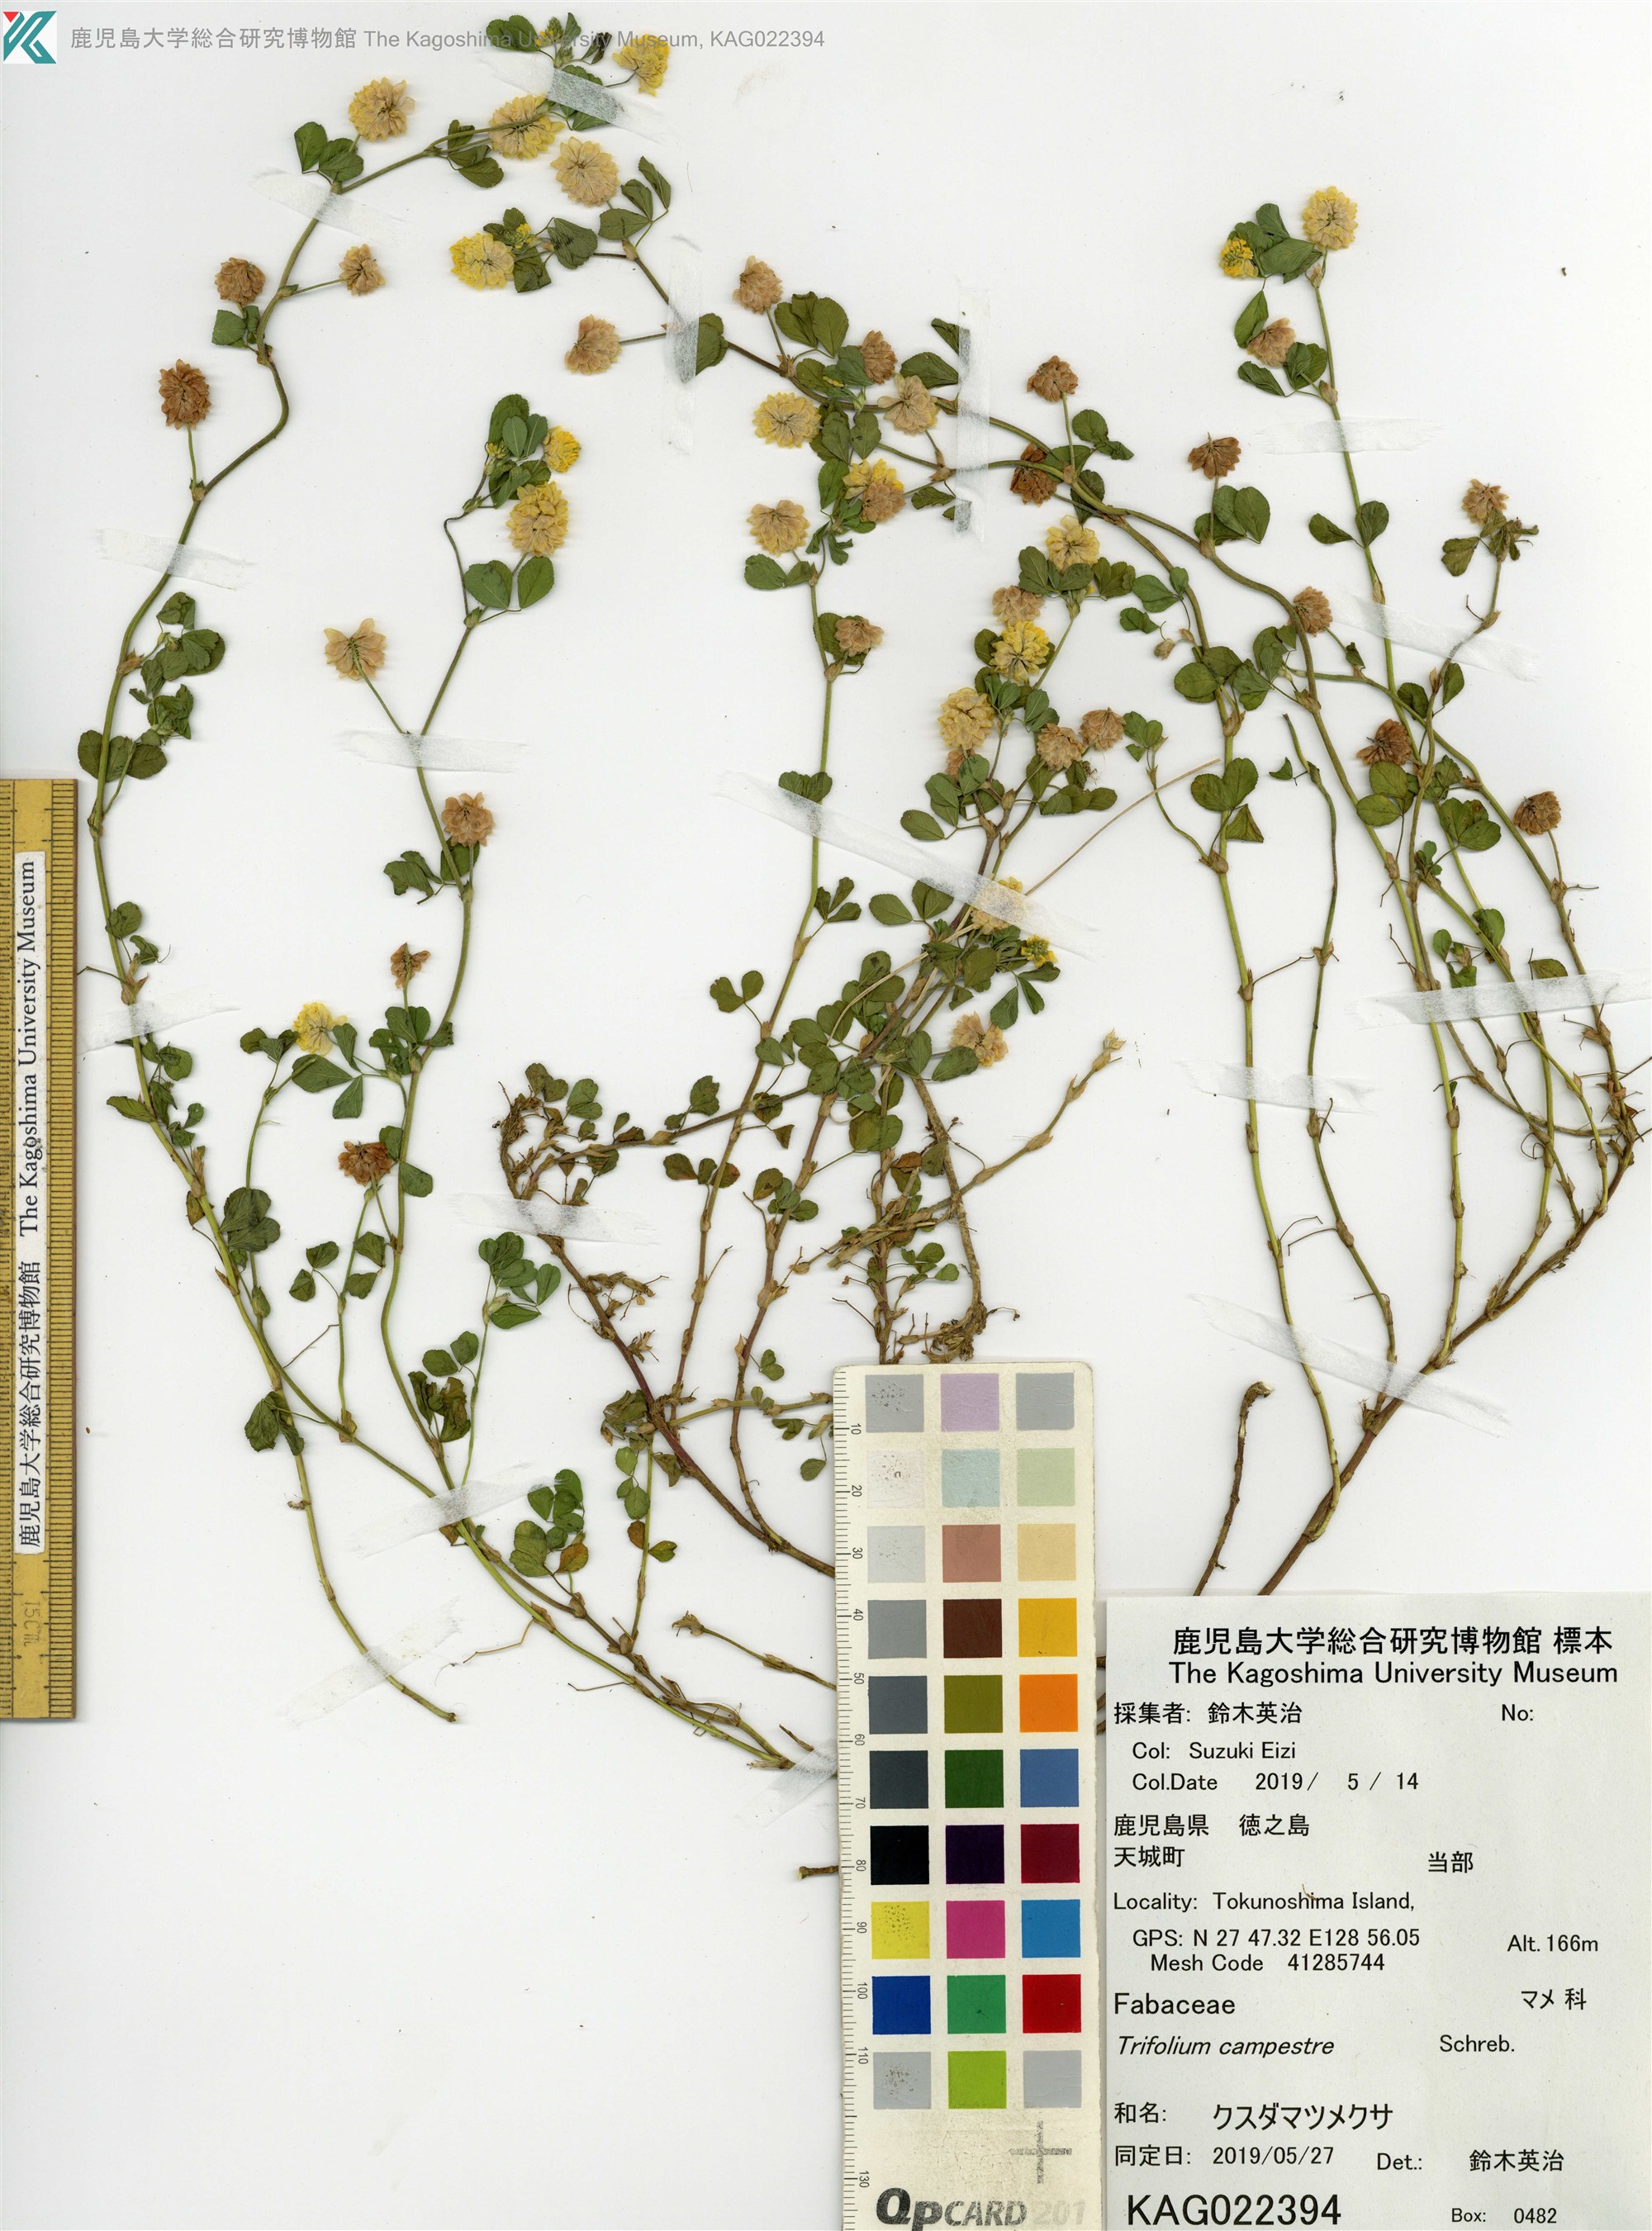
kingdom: Plantae
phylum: Tracheophyta
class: Magnoliopsida
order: Fabales
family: Fabaceae
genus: Trifolium
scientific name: Trifolium campestre
